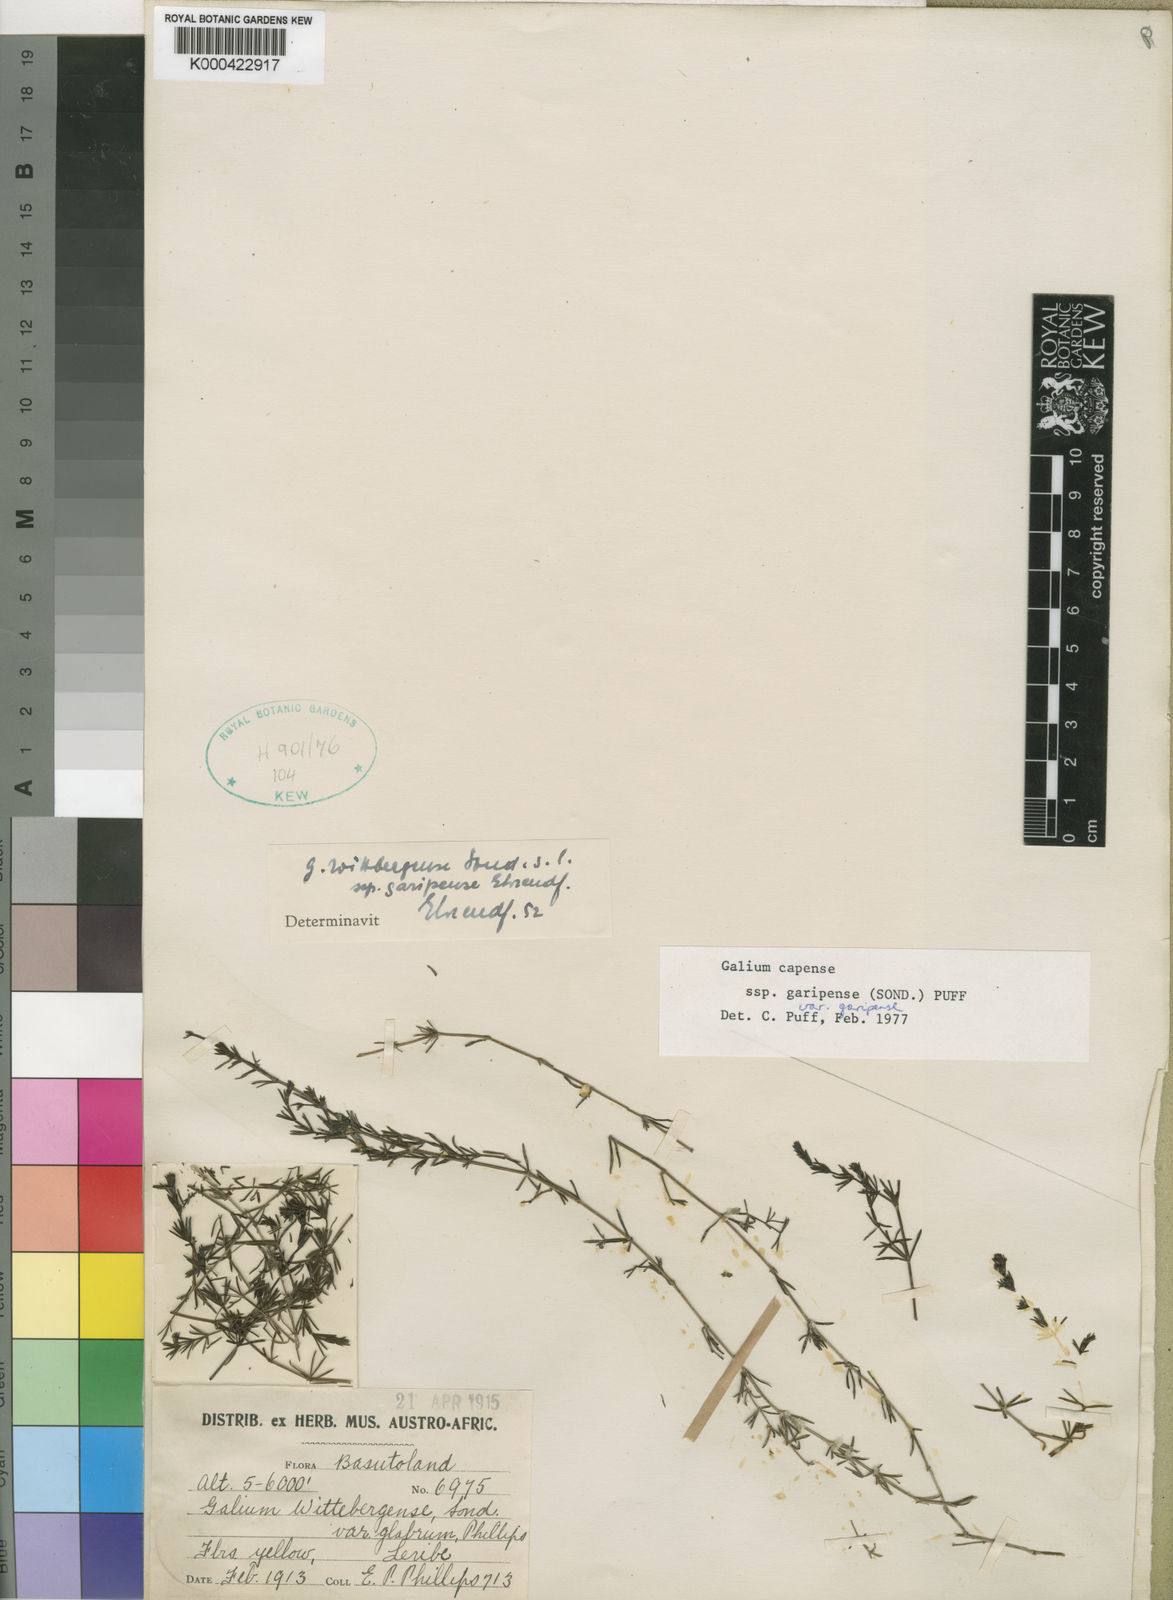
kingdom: Plantae
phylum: Tracheophyta
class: Magnoliopsida
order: Gentianales
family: Rubiaceae
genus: Galium
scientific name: Galium capense
